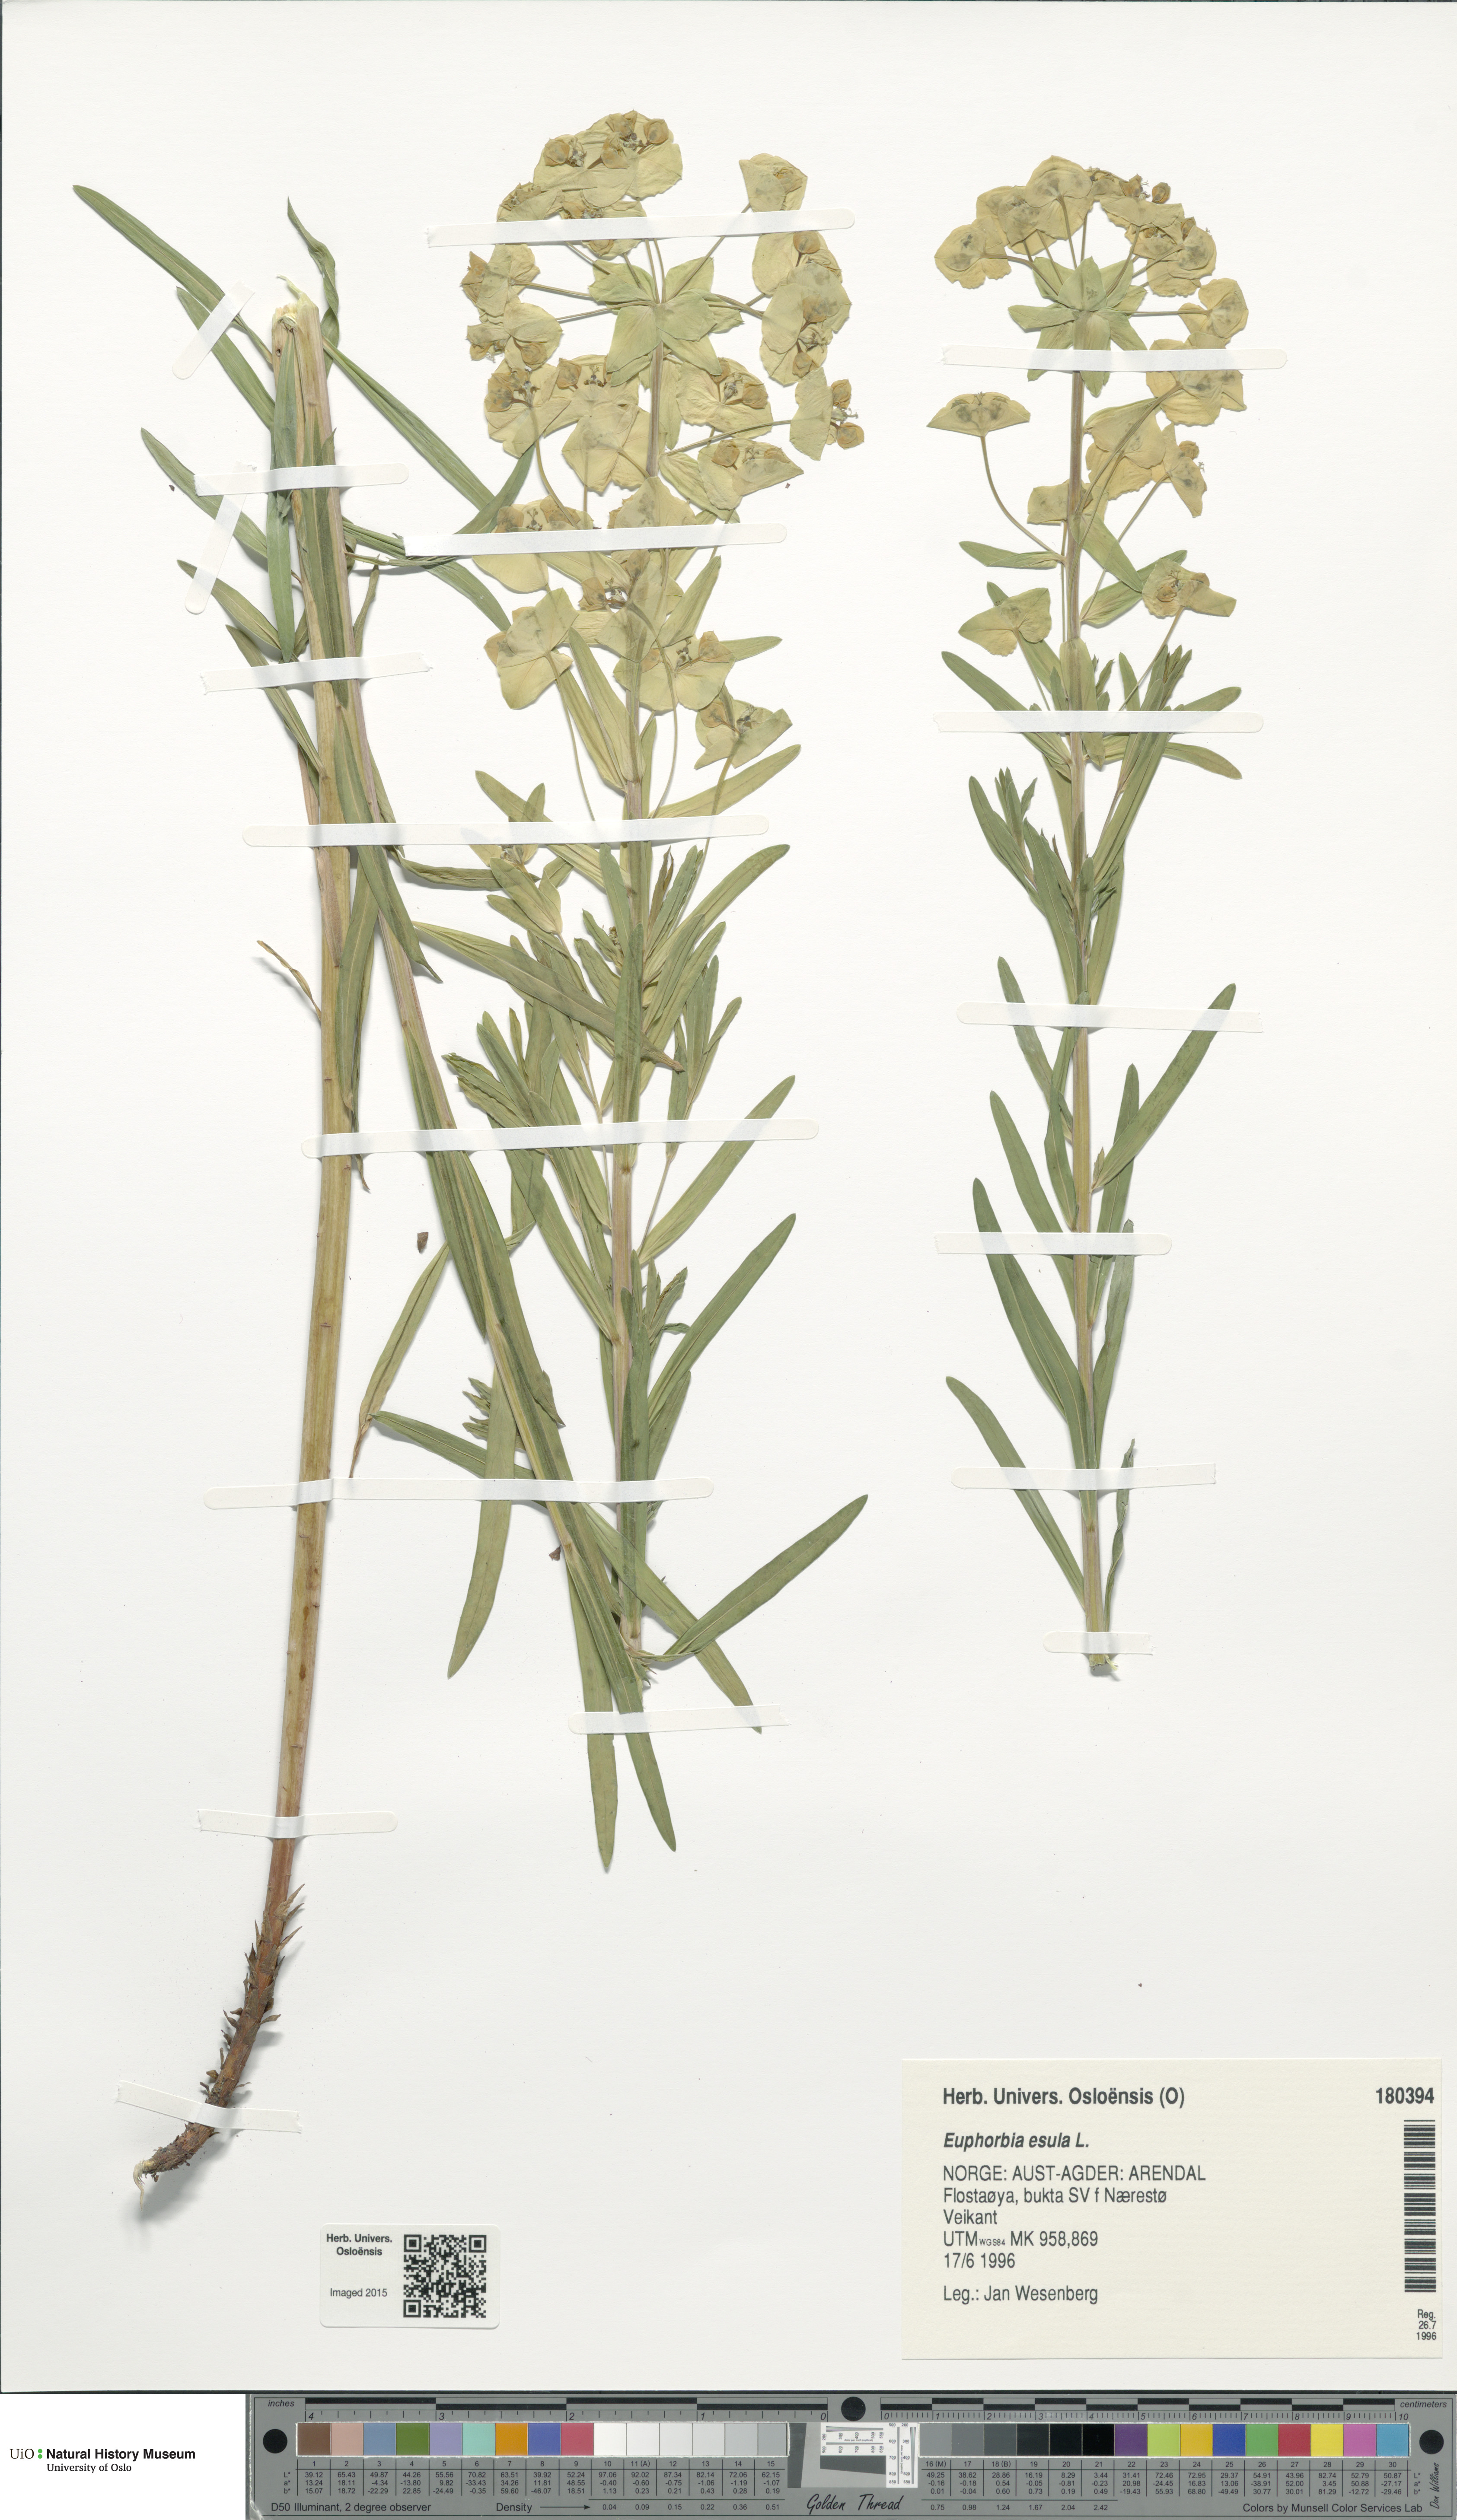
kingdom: Plantae
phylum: Tracheophyta
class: Magnoliopsida
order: Malpighiales
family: Euphorbiaceae
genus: Euphorbia
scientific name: Euphorbia esula
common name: Leafy spurge
